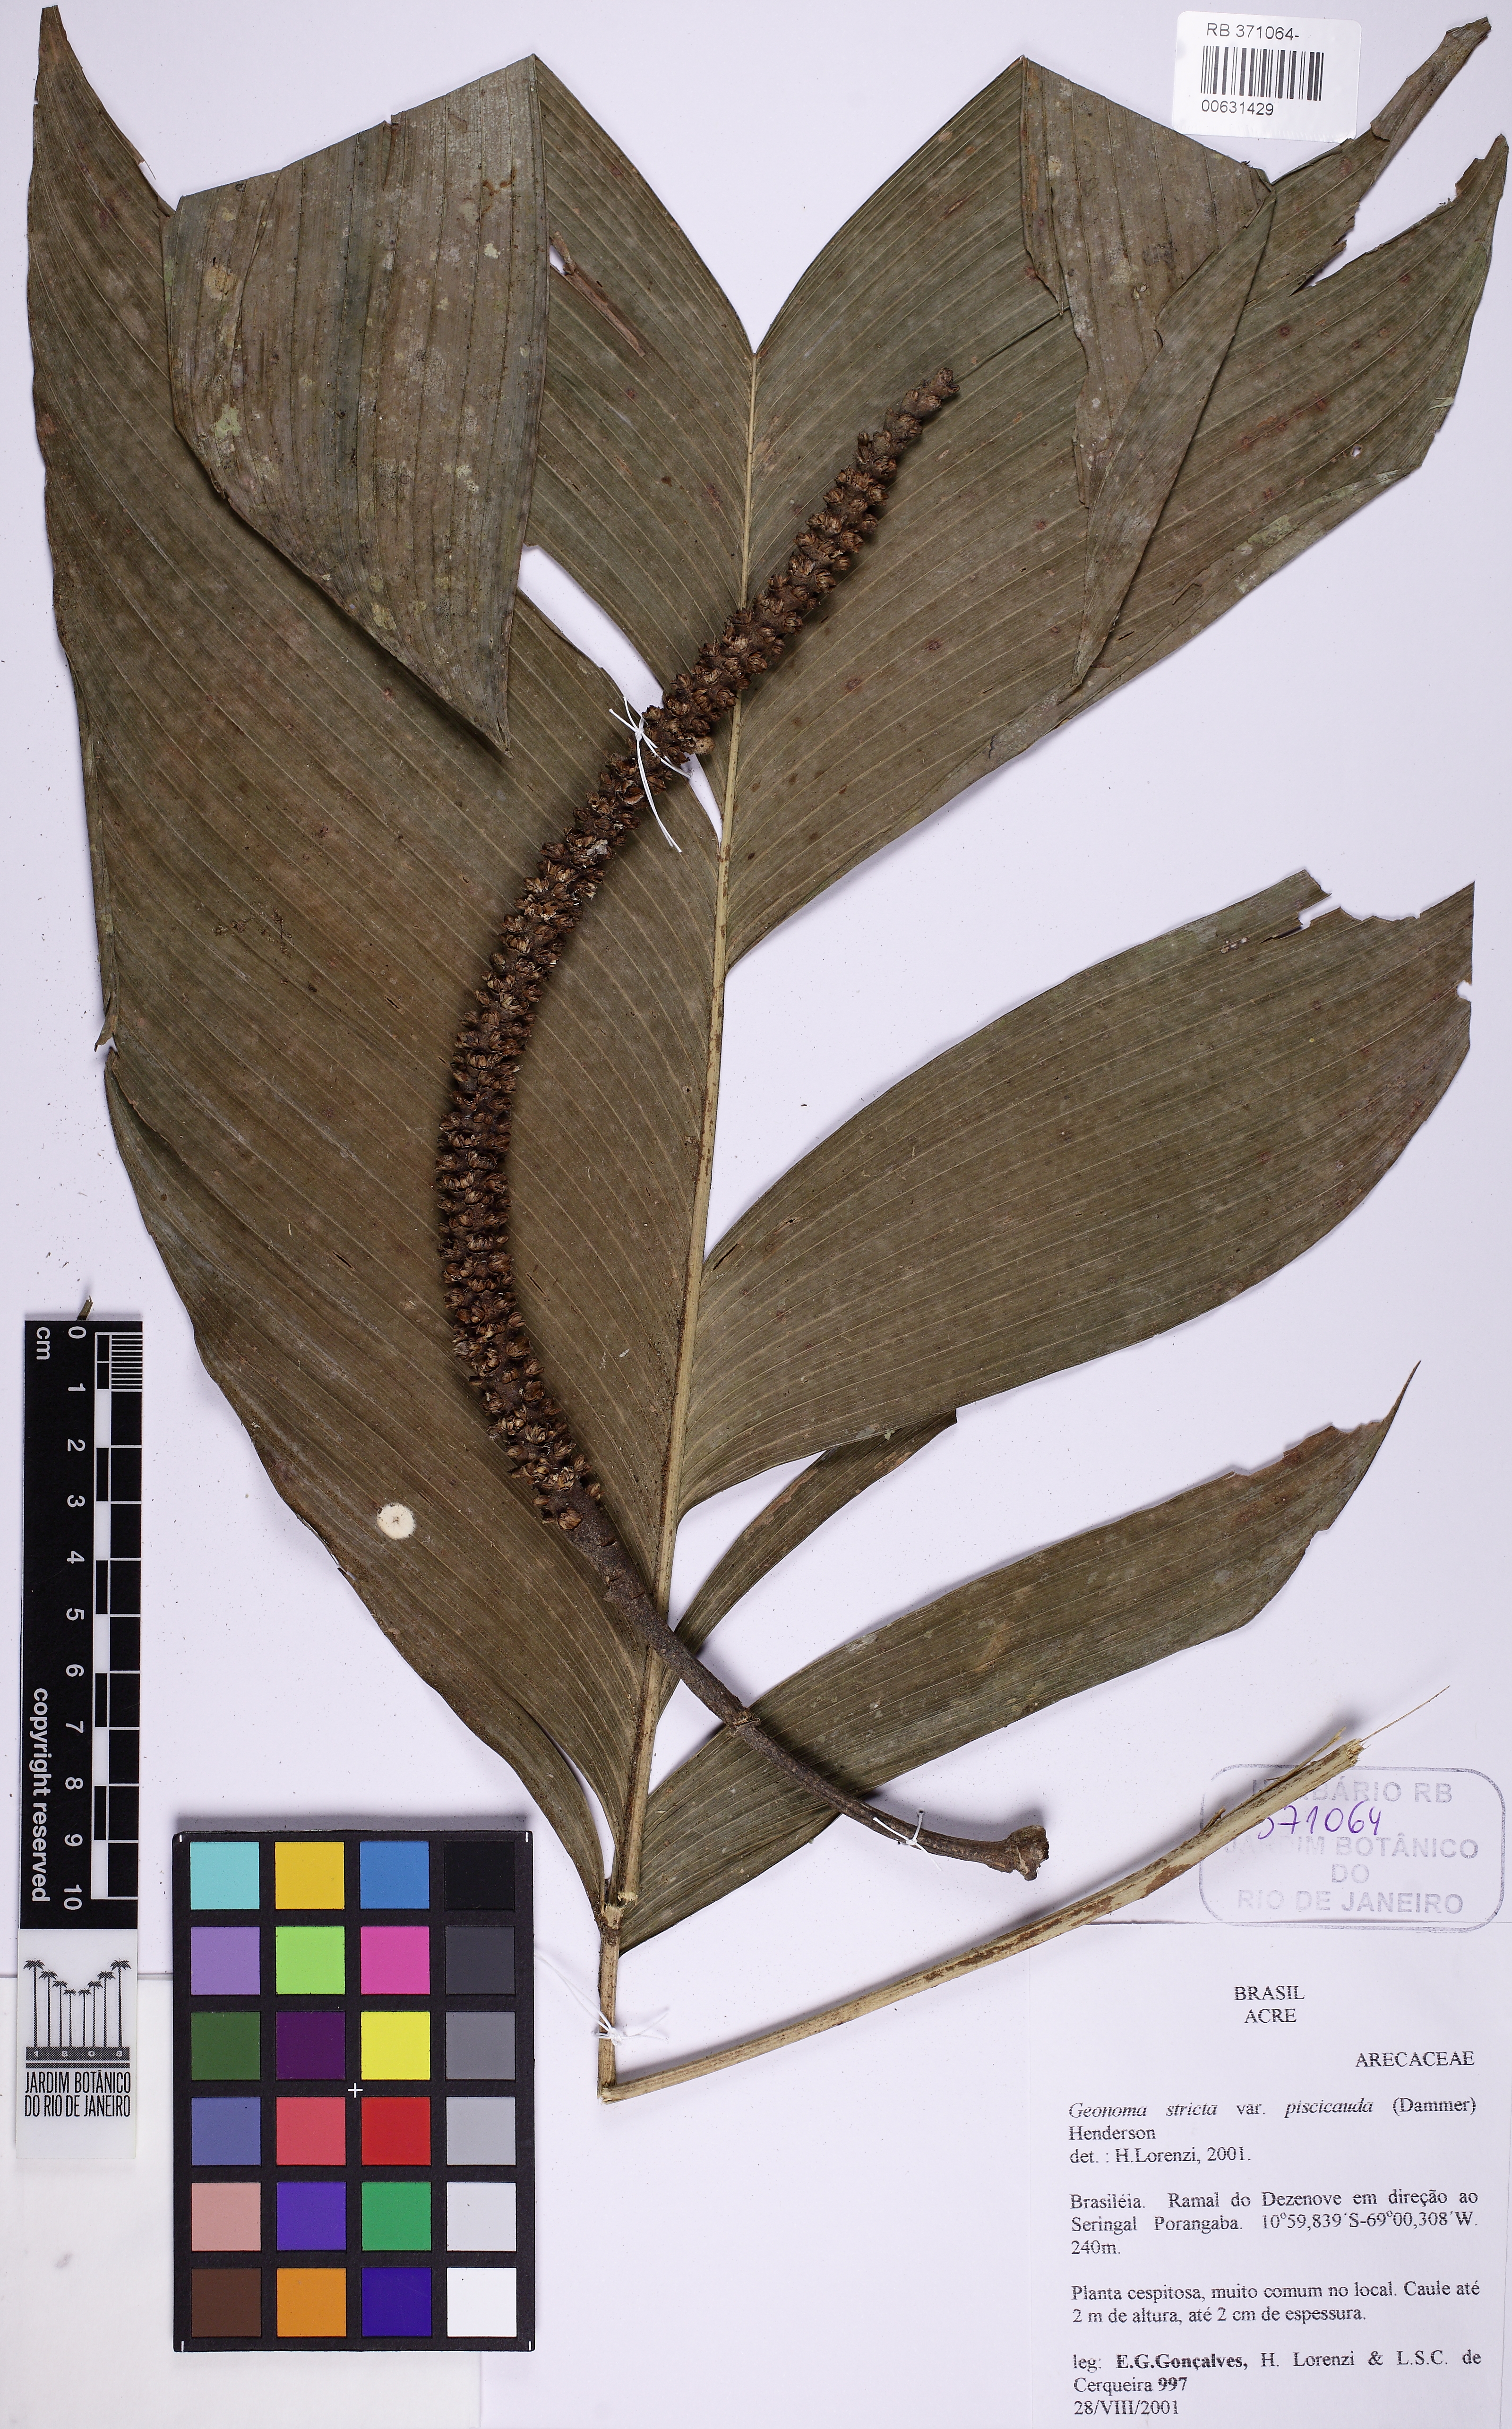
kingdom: Plantae
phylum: Tracheophyta
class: Liliopsida
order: Arecales
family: Arecaceae
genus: Geonoma
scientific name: Geonoma stricta
